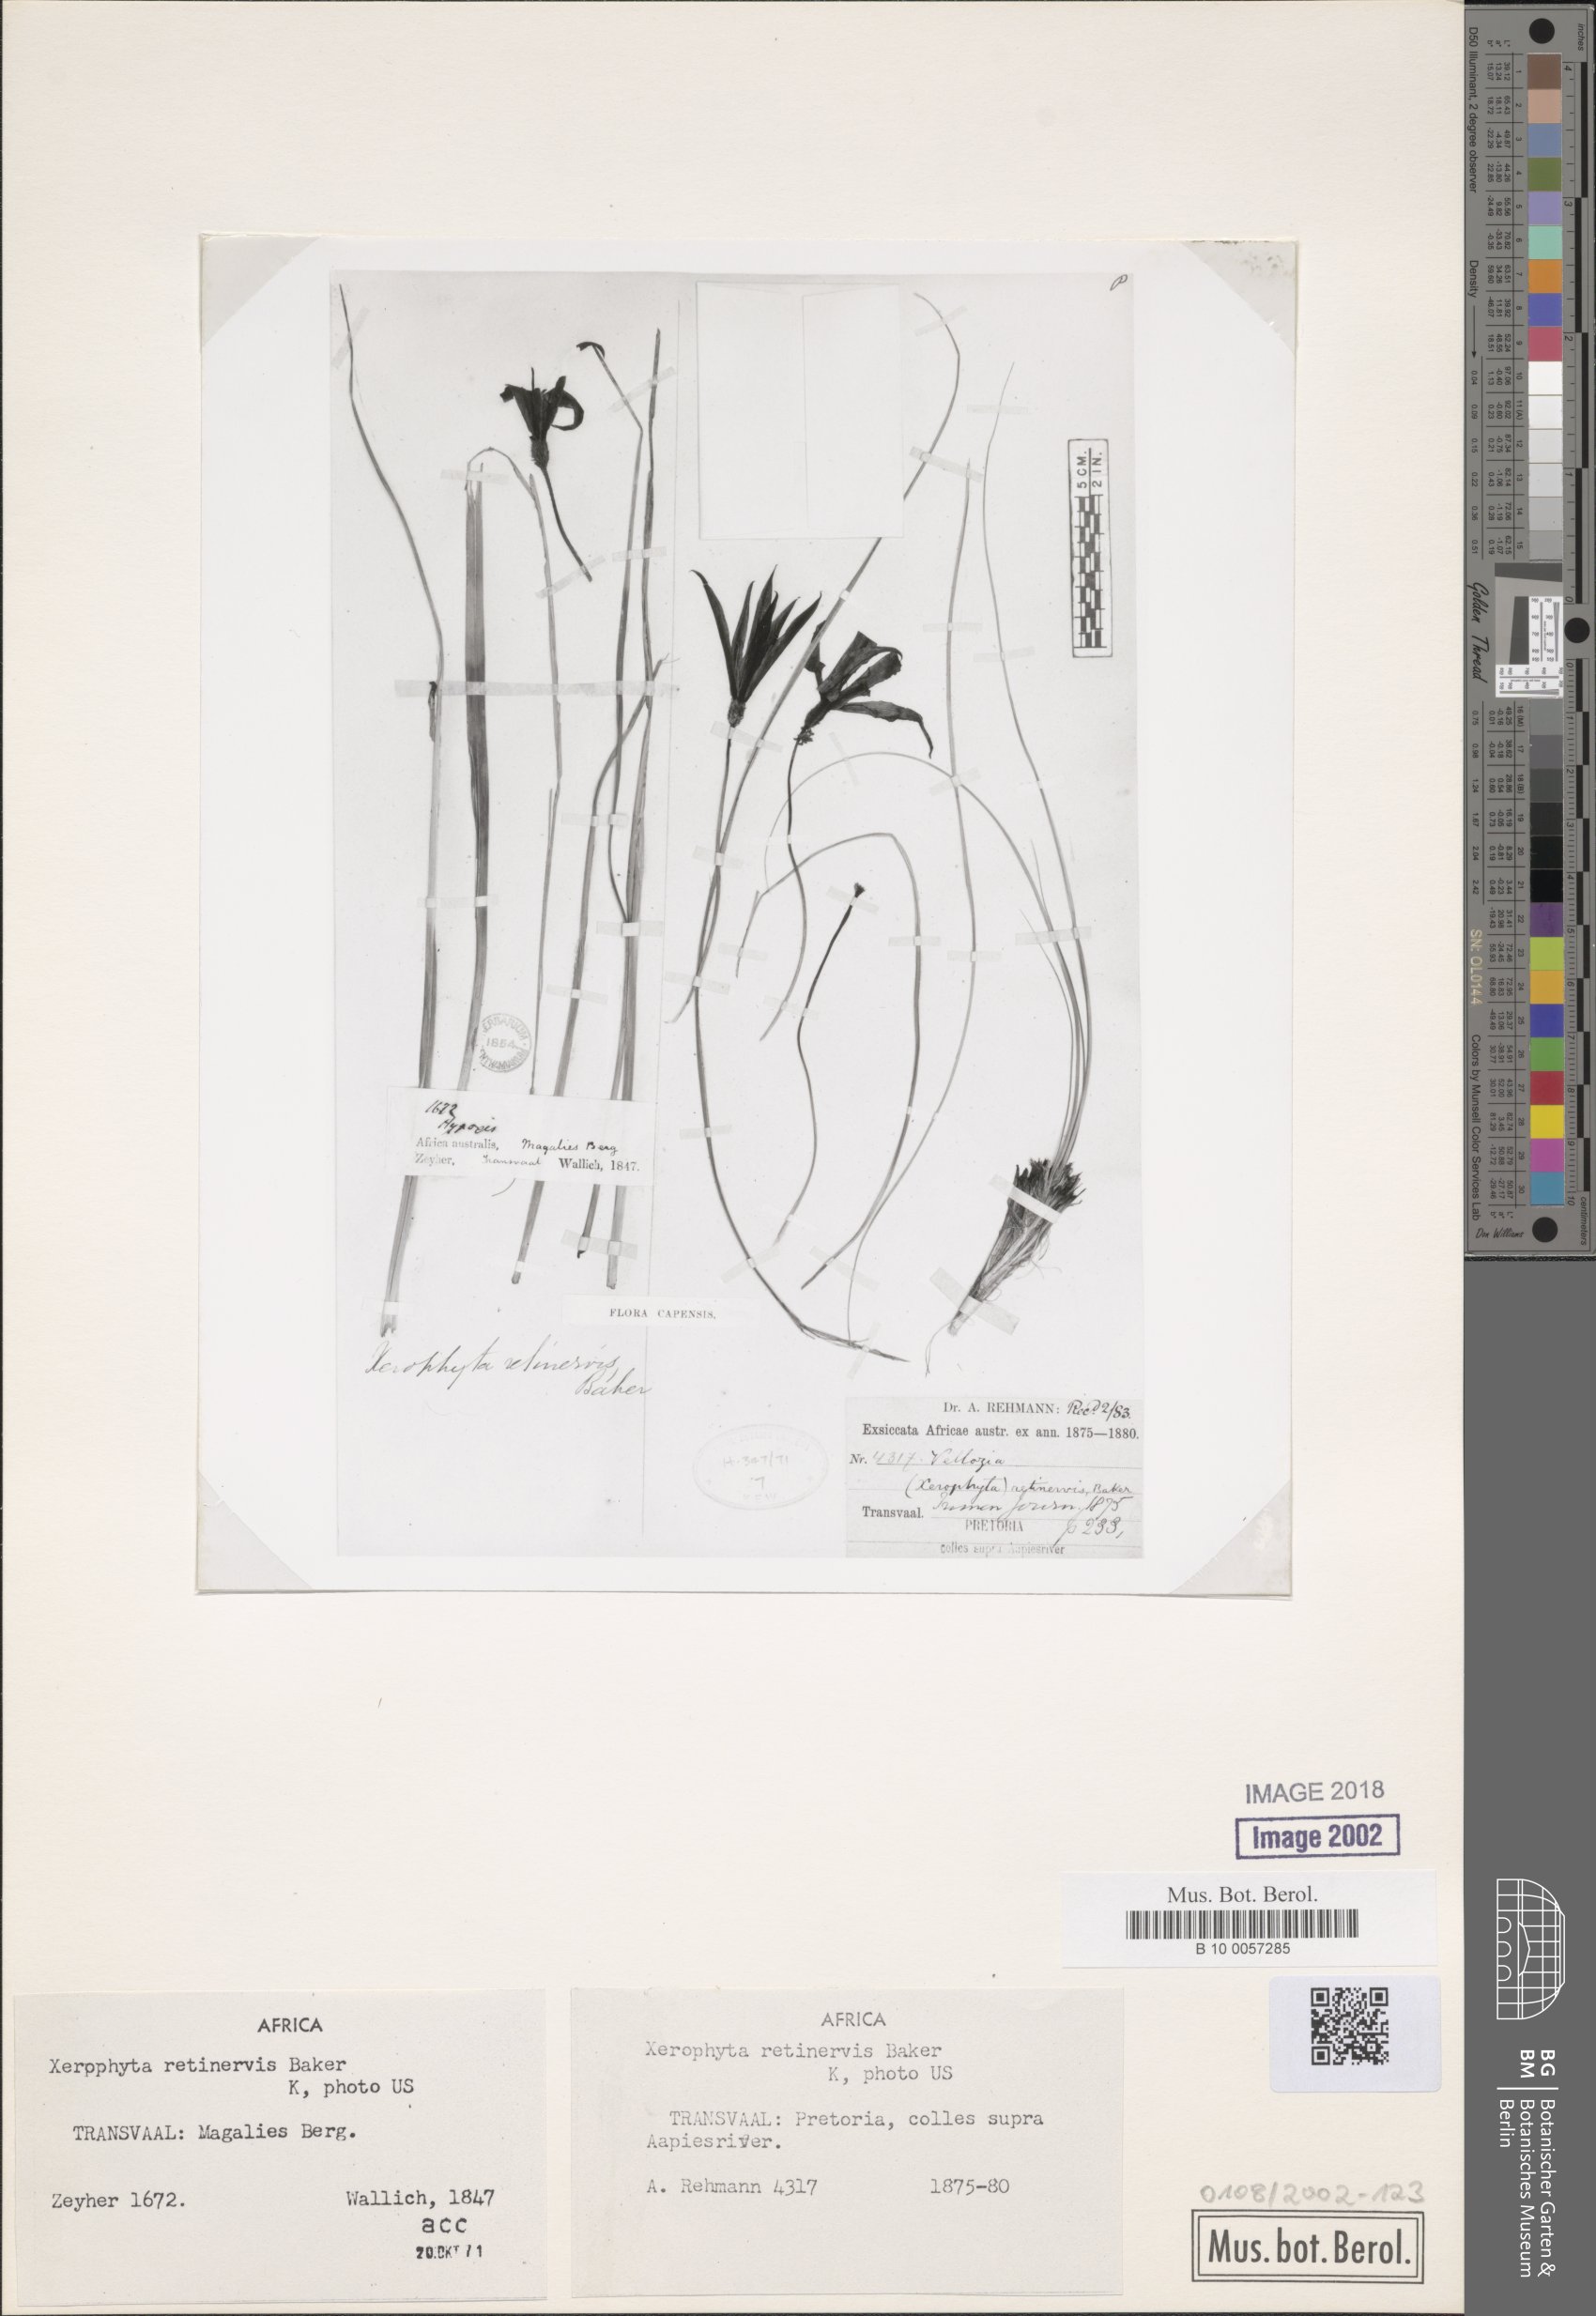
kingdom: Plantae
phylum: Tracheophyta
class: Liliopsida
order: Pandanales
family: Velloziaceae
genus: Xerophyta
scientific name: Xerophyta retinervis
